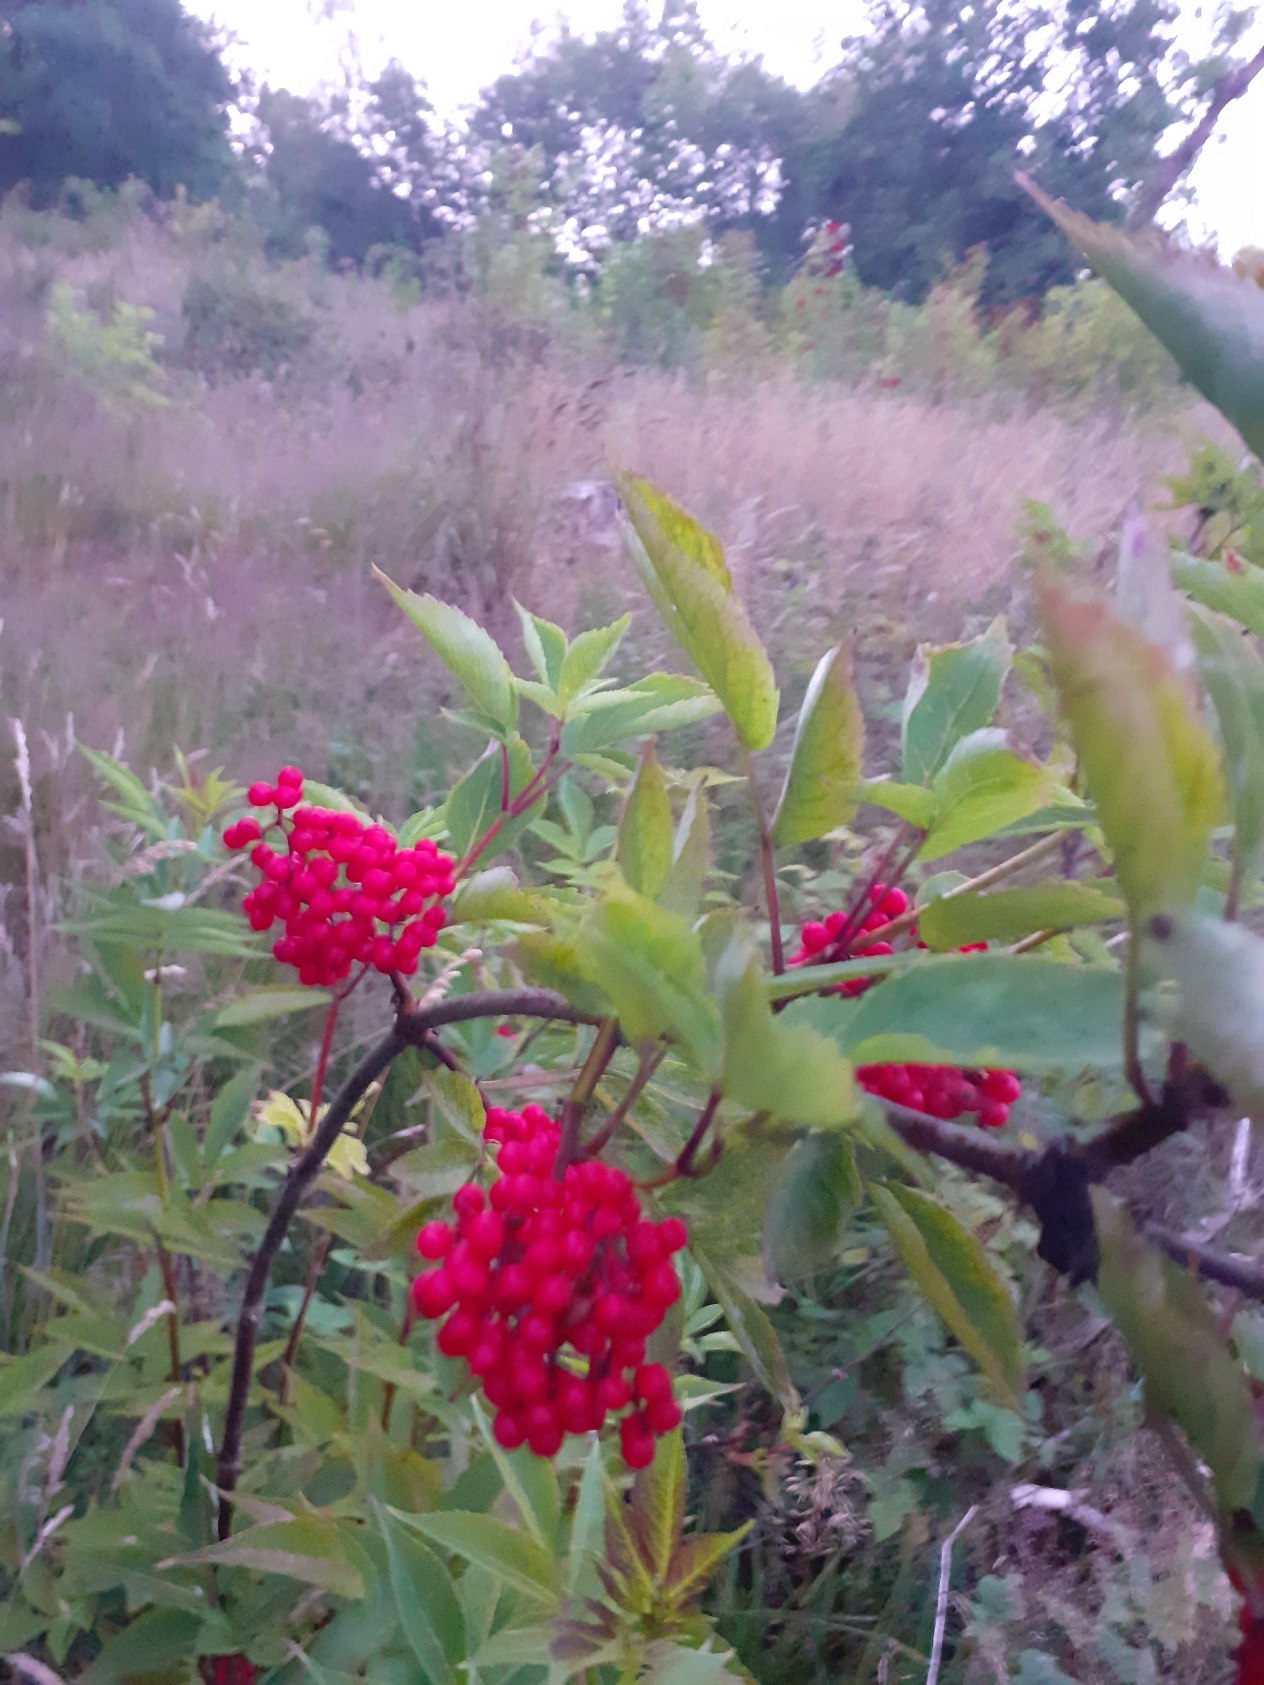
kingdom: Plantae
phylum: Tracheophyta
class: Magnoliopsida
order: Dipsacales
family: Viburnaceae
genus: Sambucus
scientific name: Sambucus racemosa
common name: Drue-hyld
